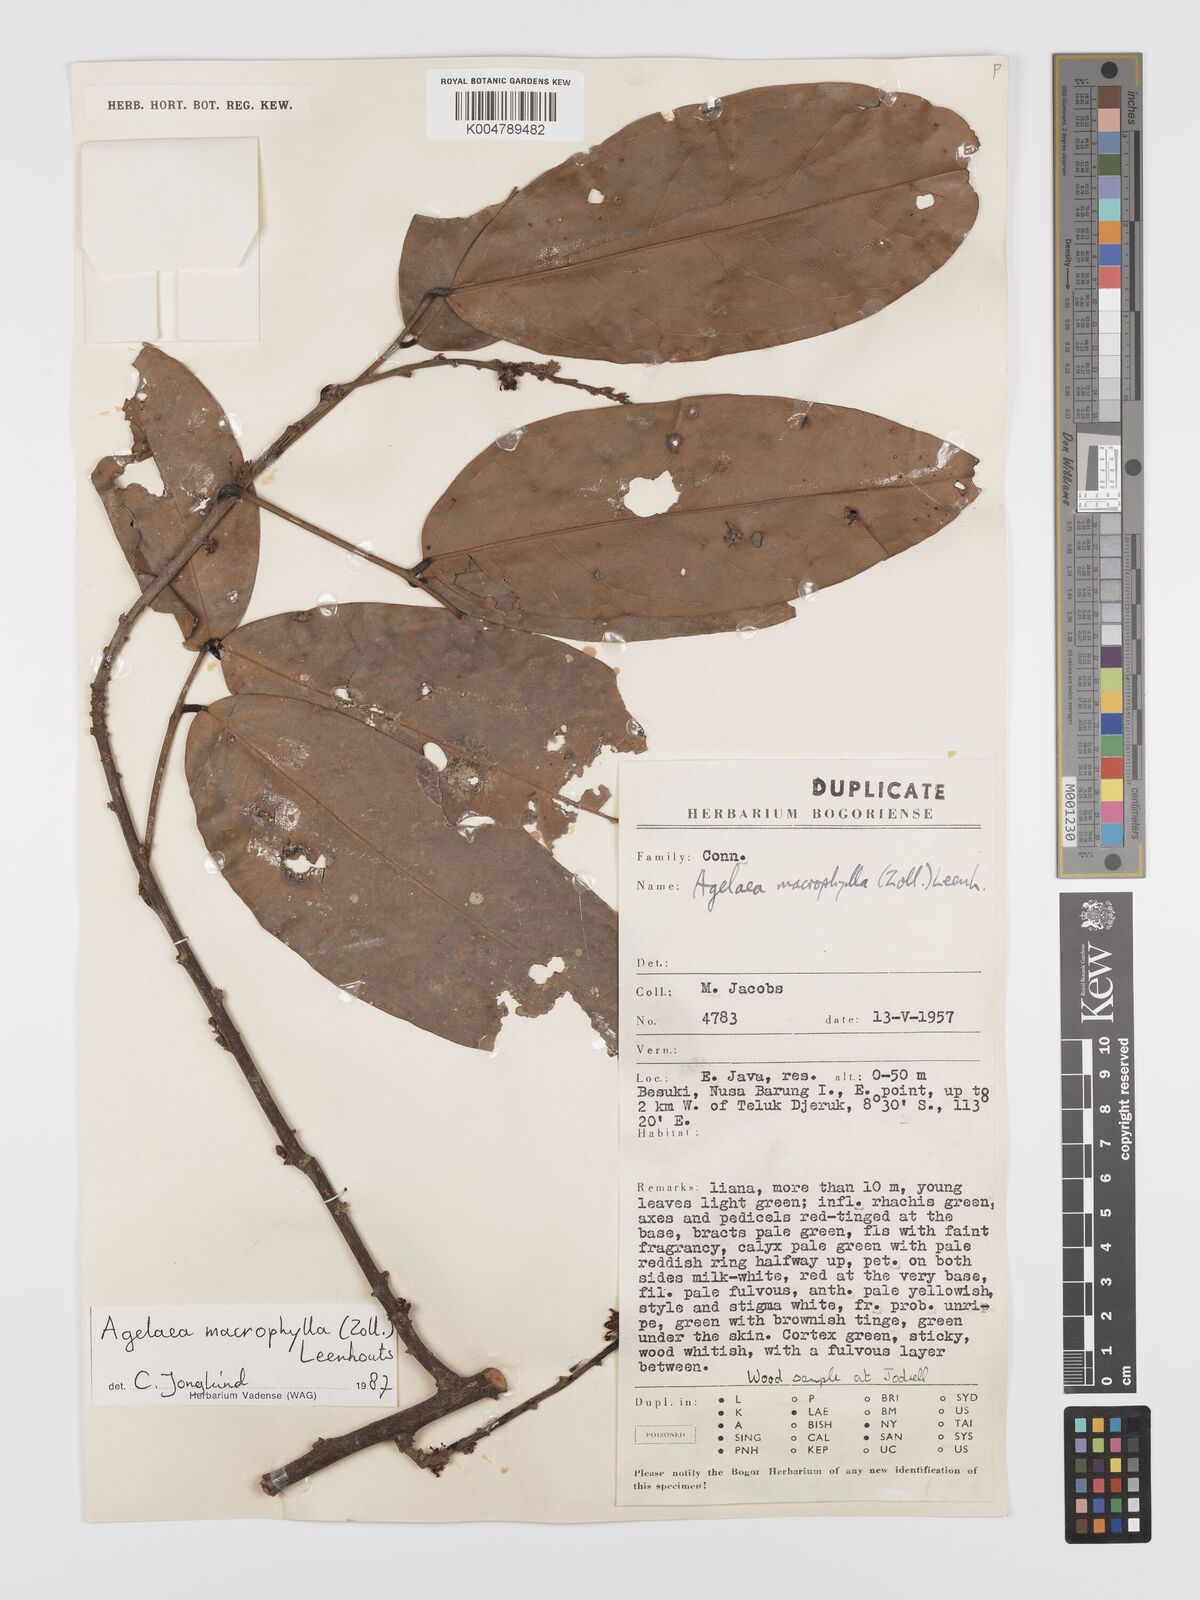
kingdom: Plantae
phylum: Tracheophyta
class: Magnoliopsida
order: Oxalidales
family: Connaraceae
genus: Agelaea
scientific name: Agelaea macrophylla
